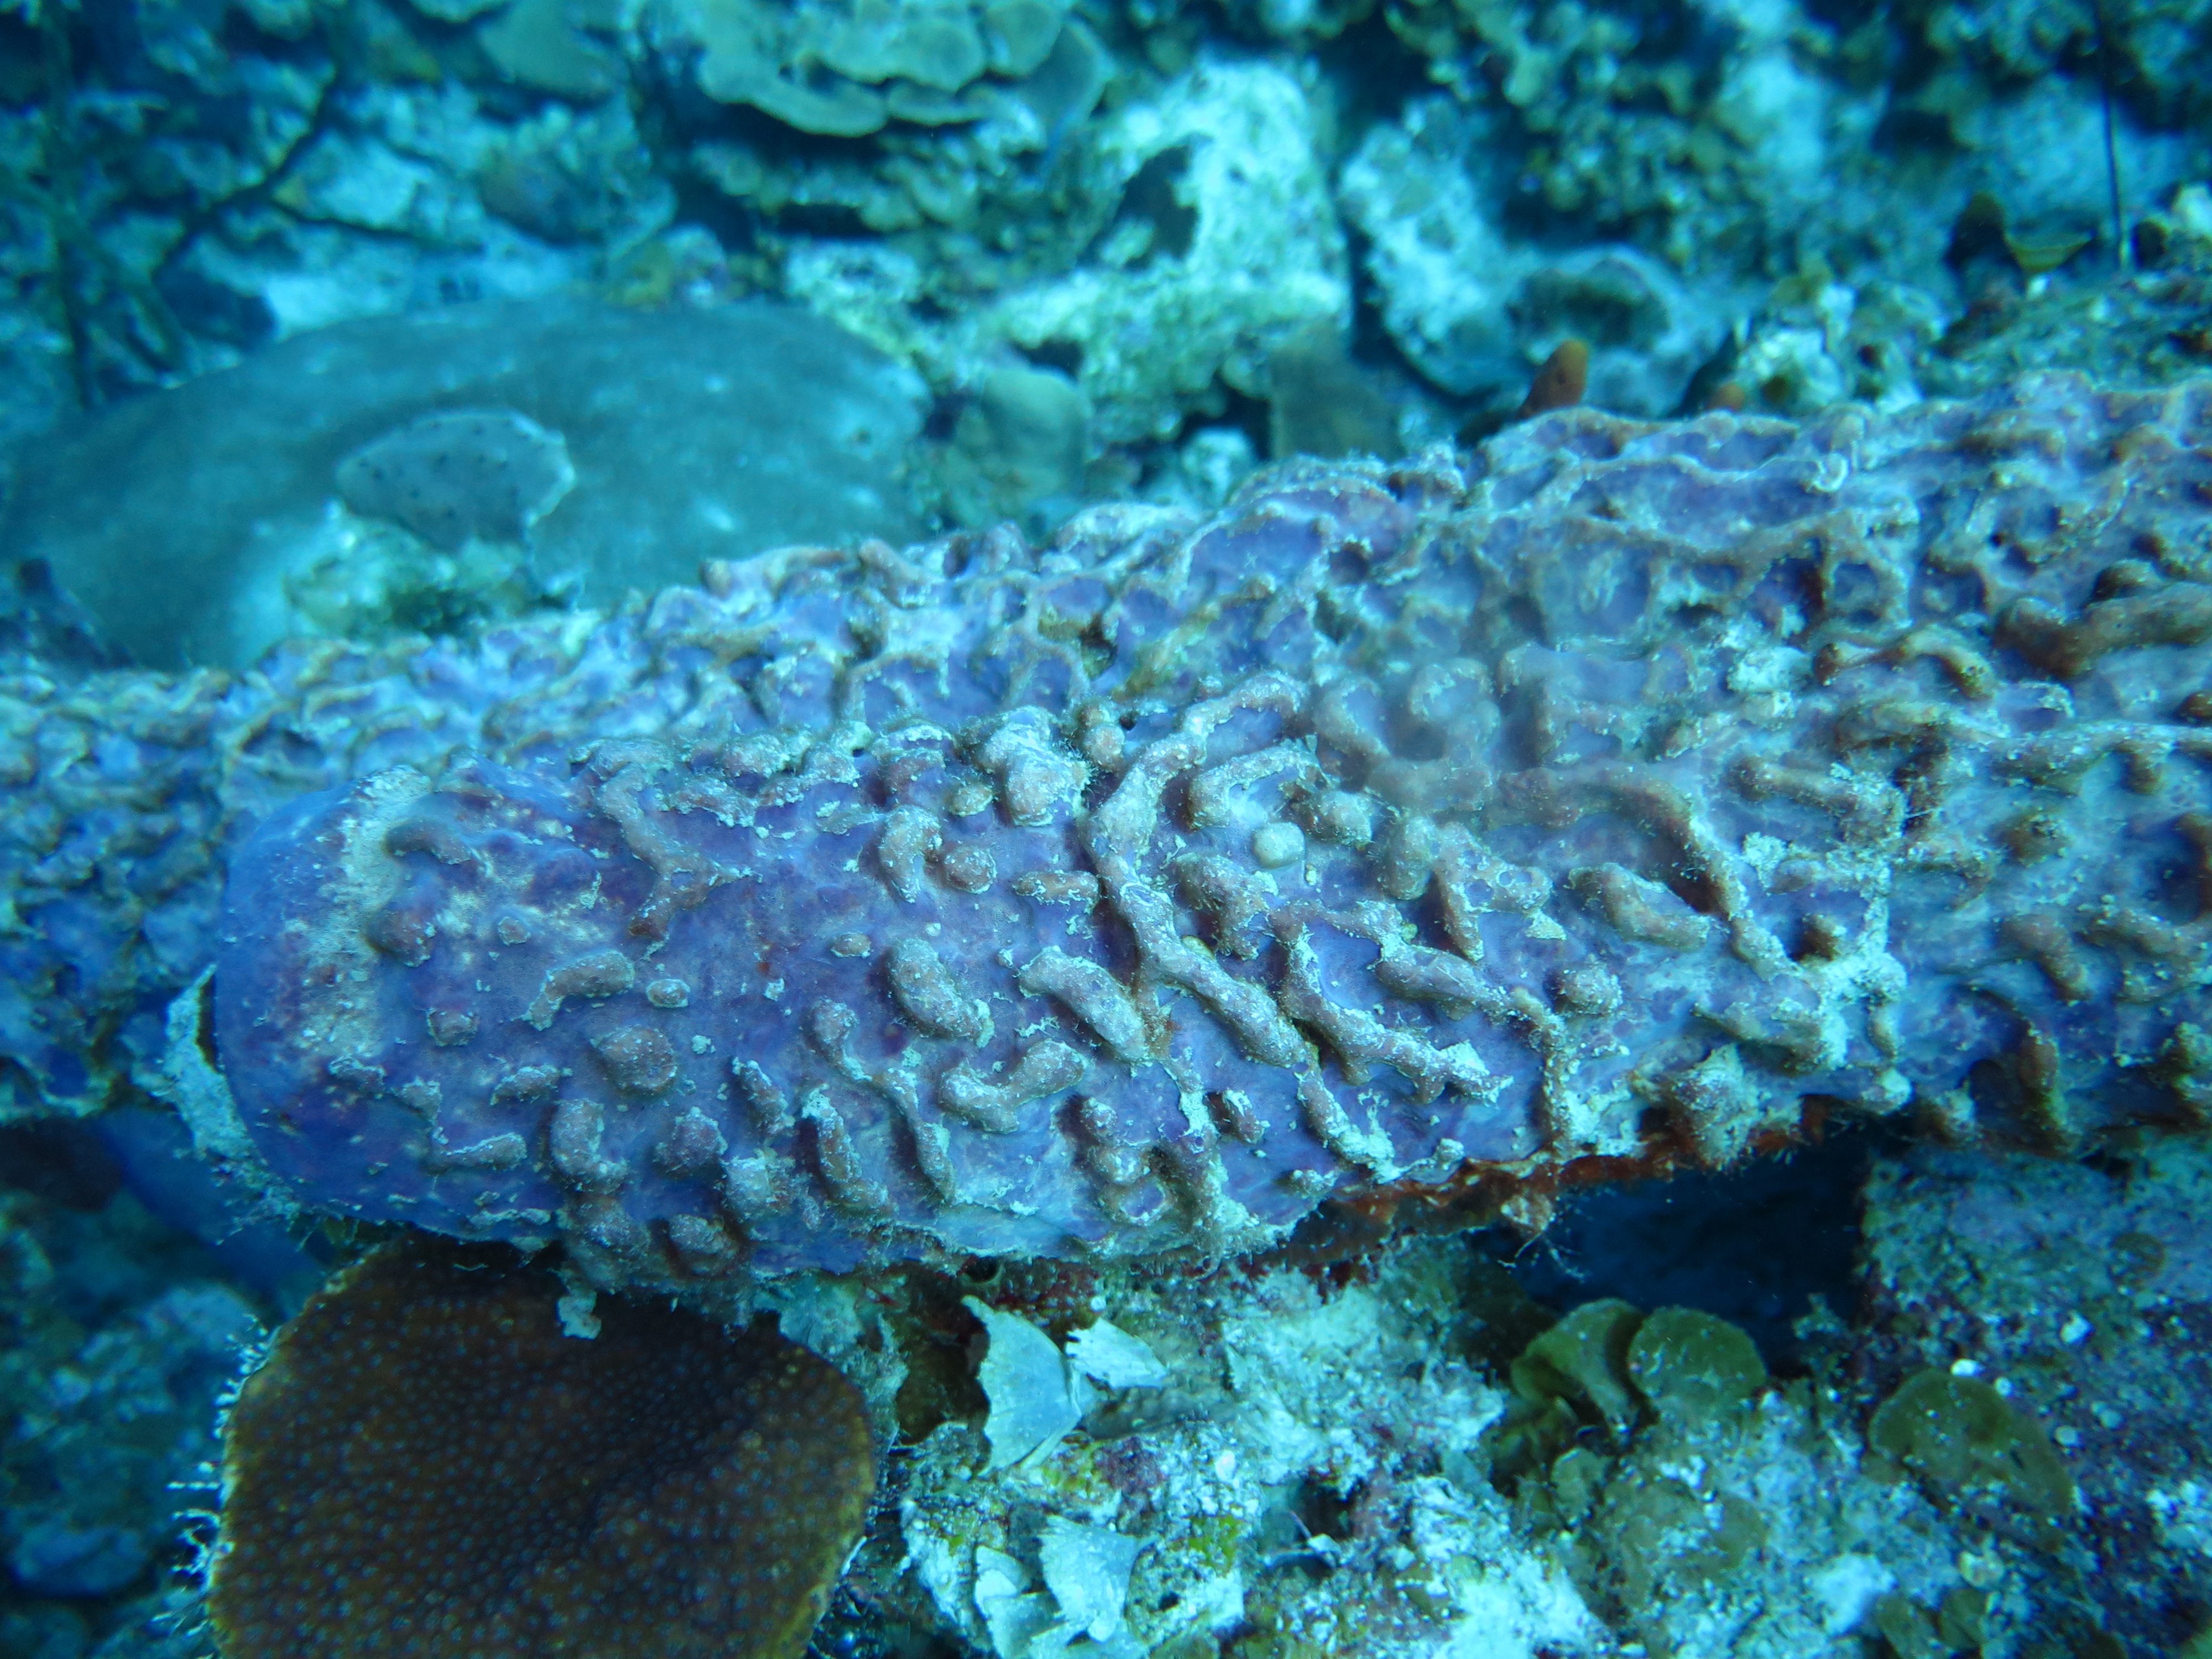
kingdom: Animalia
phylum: Porifera
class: Demospongiae
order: Verongiida
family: Aplysinidae
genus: Aplysina
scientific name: Aplysina archeri
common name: Stove-pipe sponge
